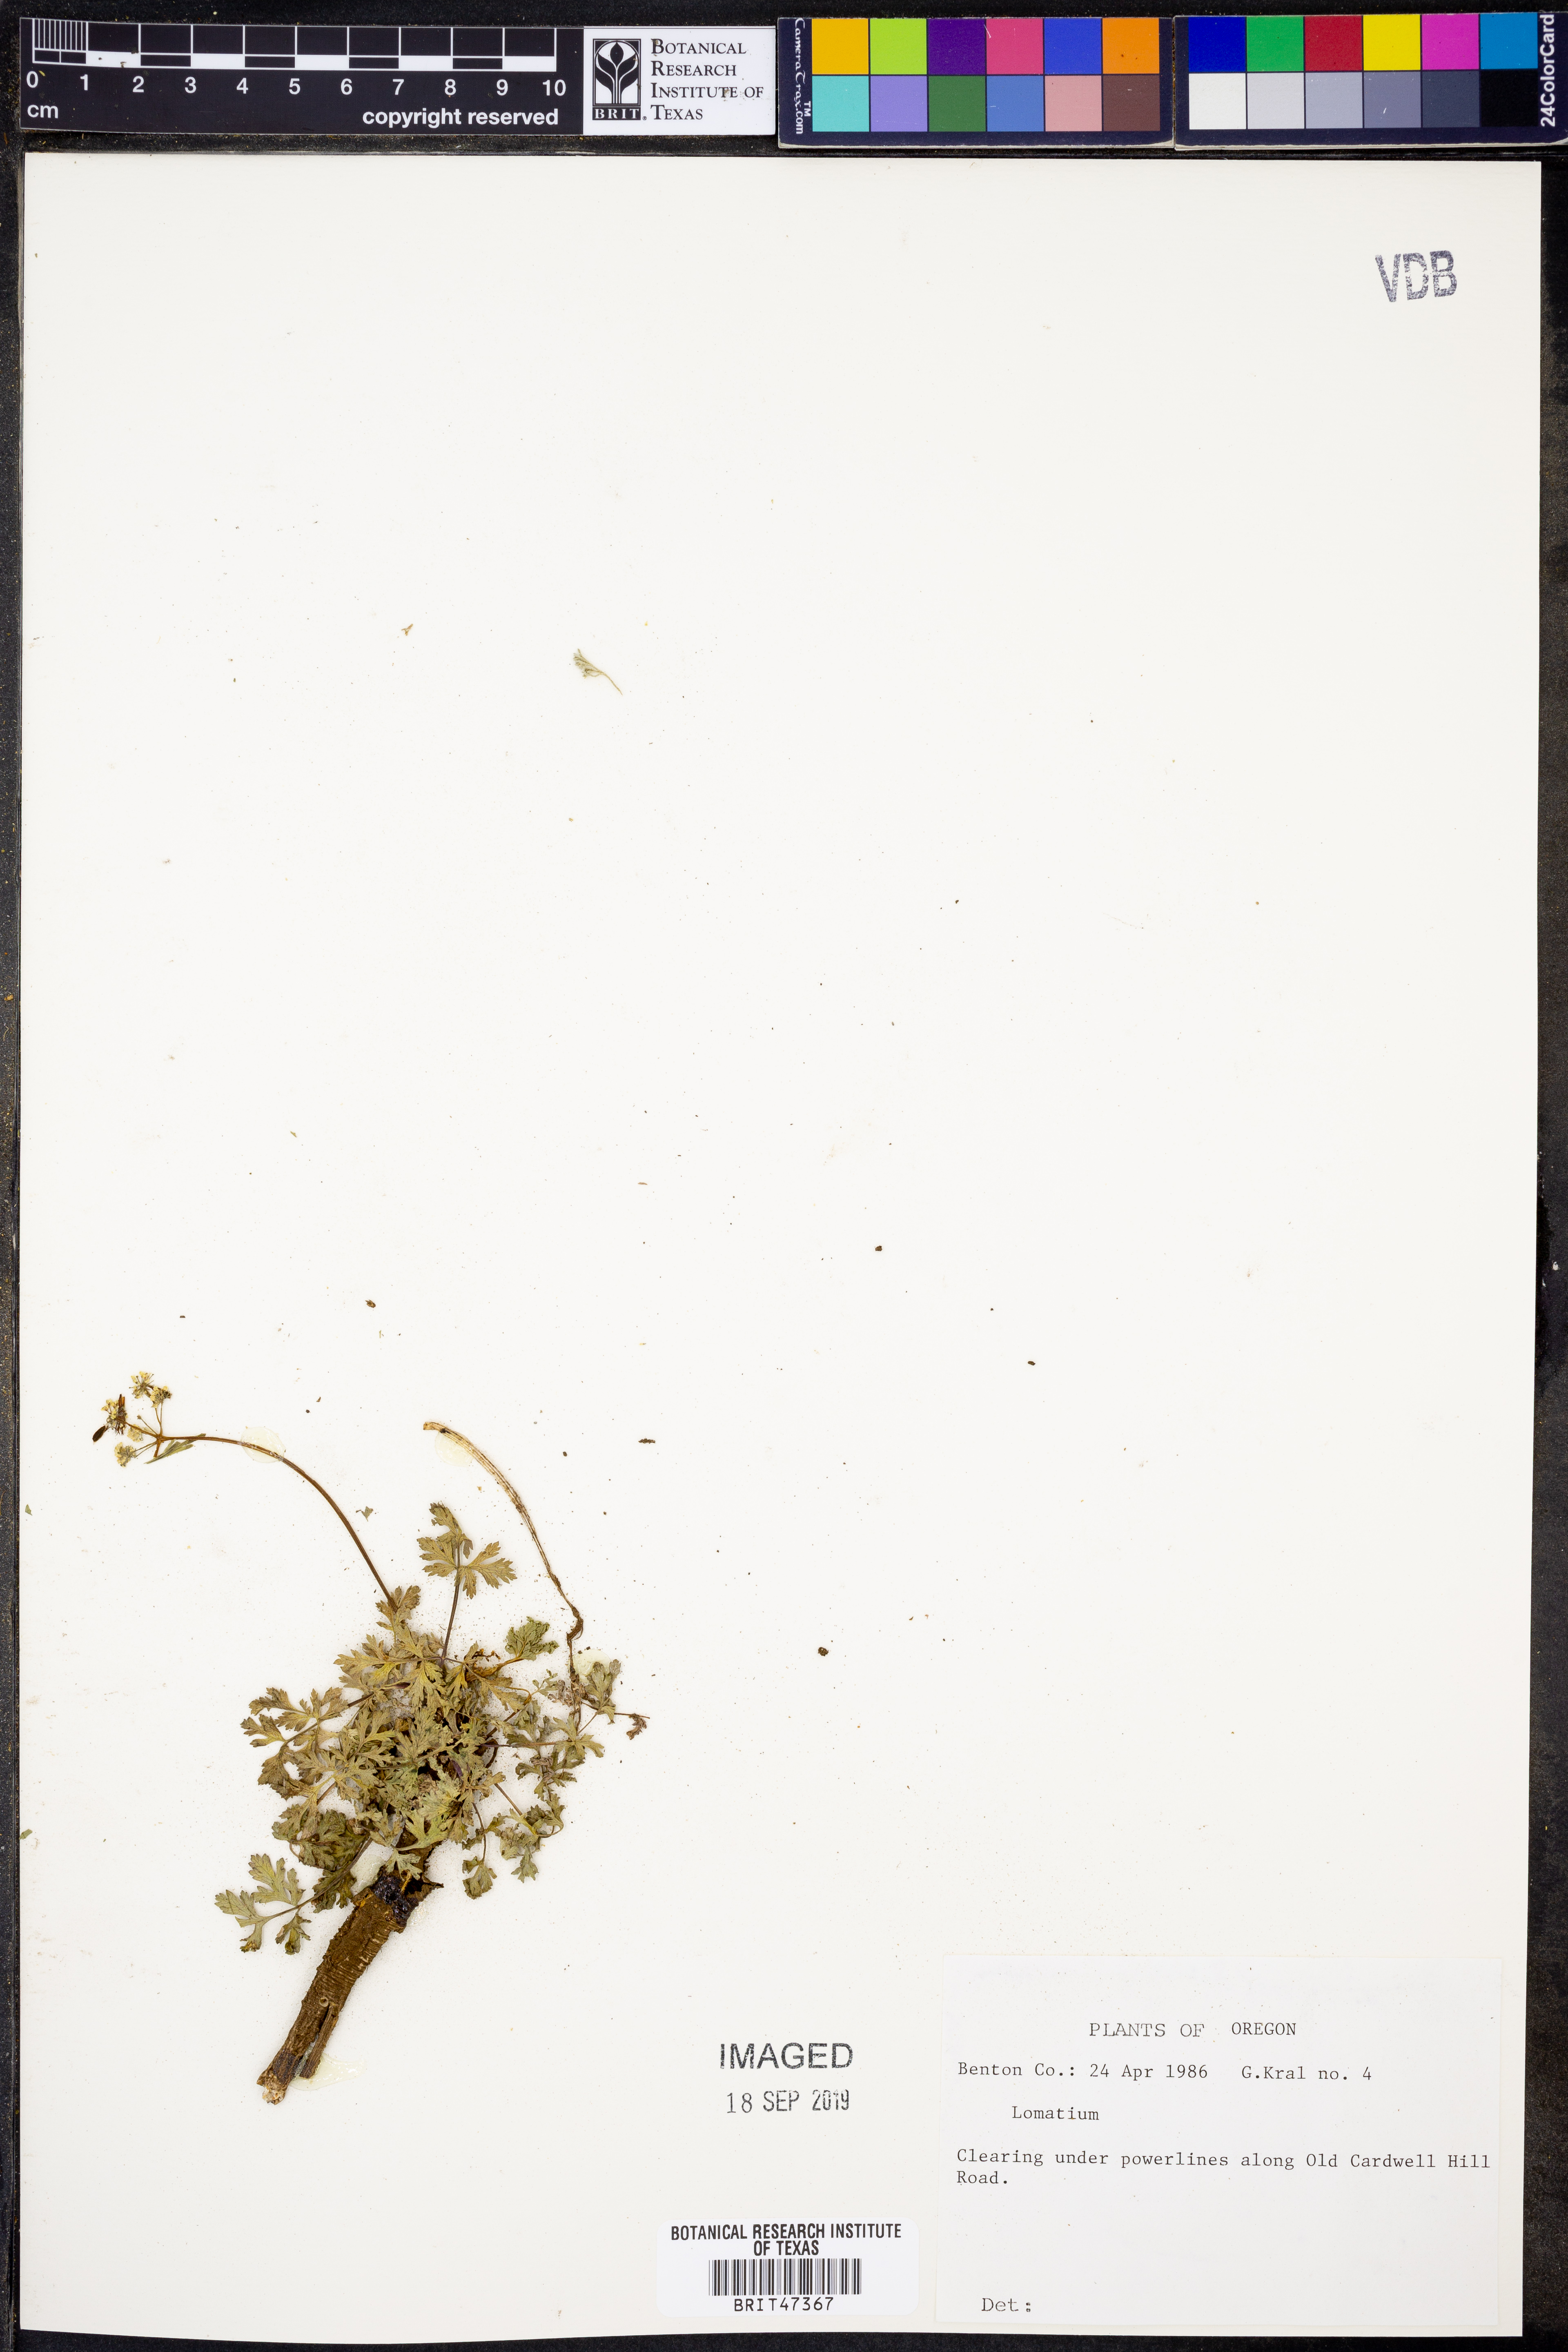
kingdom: Plantae
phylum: Tracheophyta
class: Magnoliopsida
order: Apiales
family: Apiaceae
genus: Lomatium
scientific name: Lomatium
